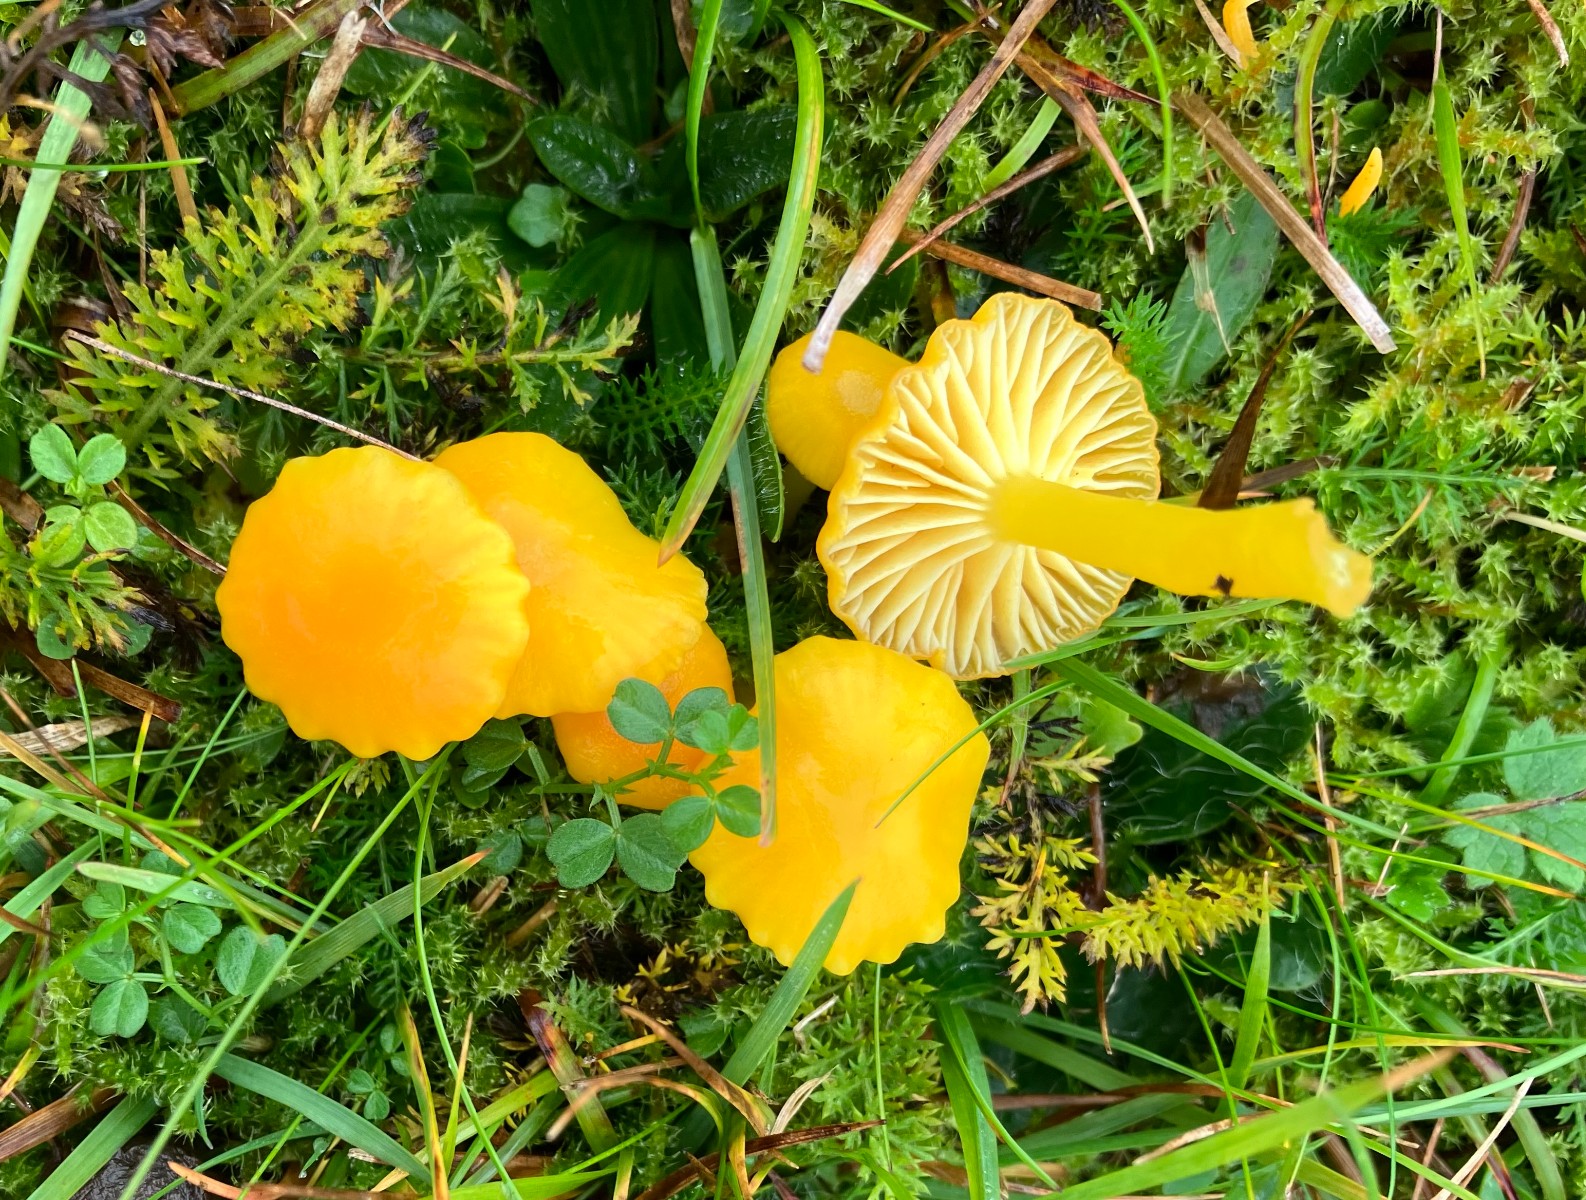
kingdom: Fungi
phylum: Basidiomycota
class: Agaricomycetes
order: Agaricales
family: Hygrophoraceae
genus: Hygrocybe
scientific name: Hygrocybe ceracea
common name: voksgul vokshat
